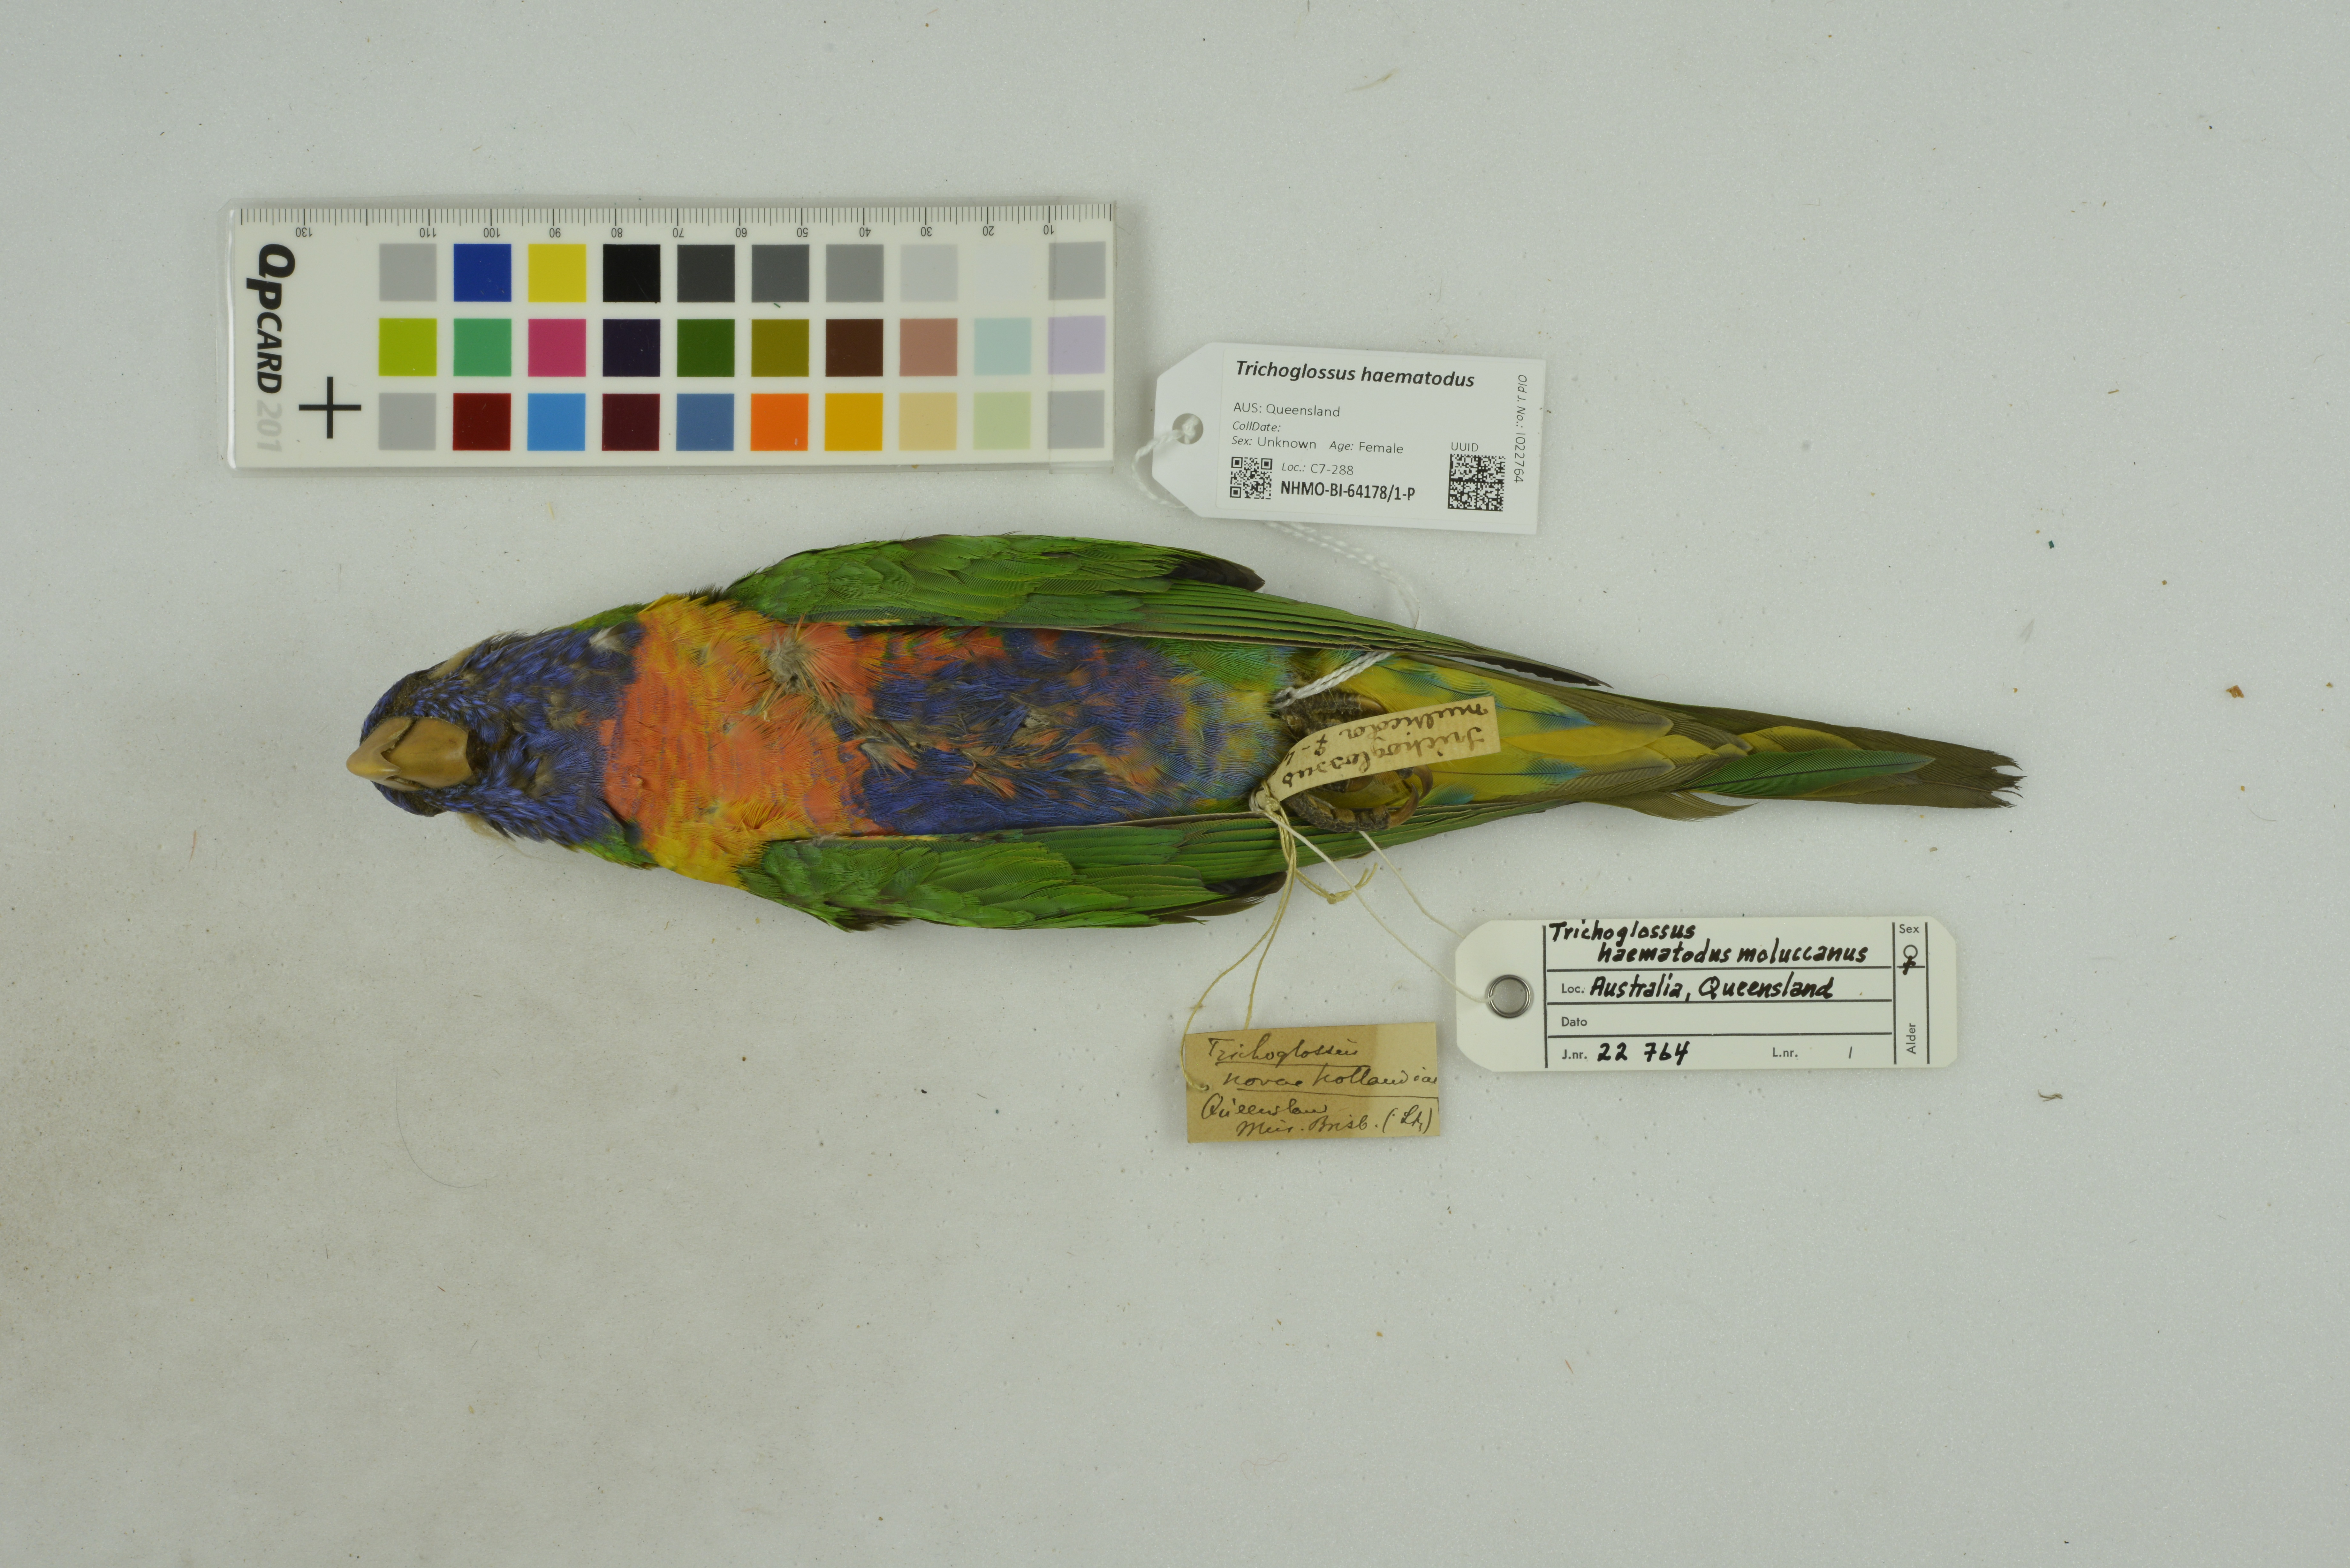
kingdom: Animalia
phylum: Chordata
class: Aves
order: Psittaciformes
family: Psittacidae
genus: Trichoglossus
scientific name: Trichoglossus haematodus
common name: Coconut lorikeet
